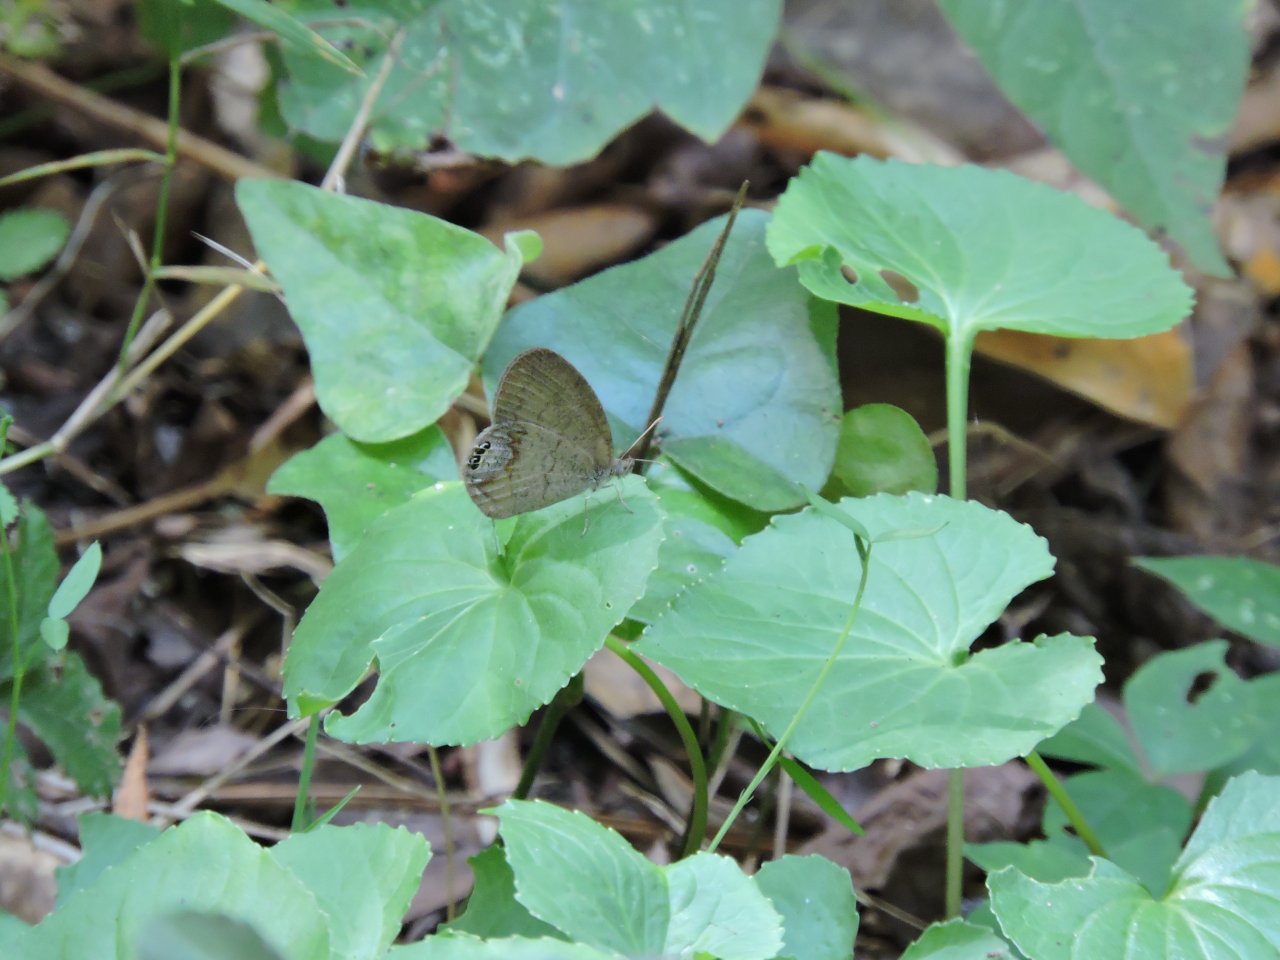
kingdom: Animalia
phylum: Arthropoda
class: Insecta
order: Lepidoptera
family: Nymphalidae
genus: Euptychia
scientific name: Euptychia cornelius
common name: Gemmed Satyr
